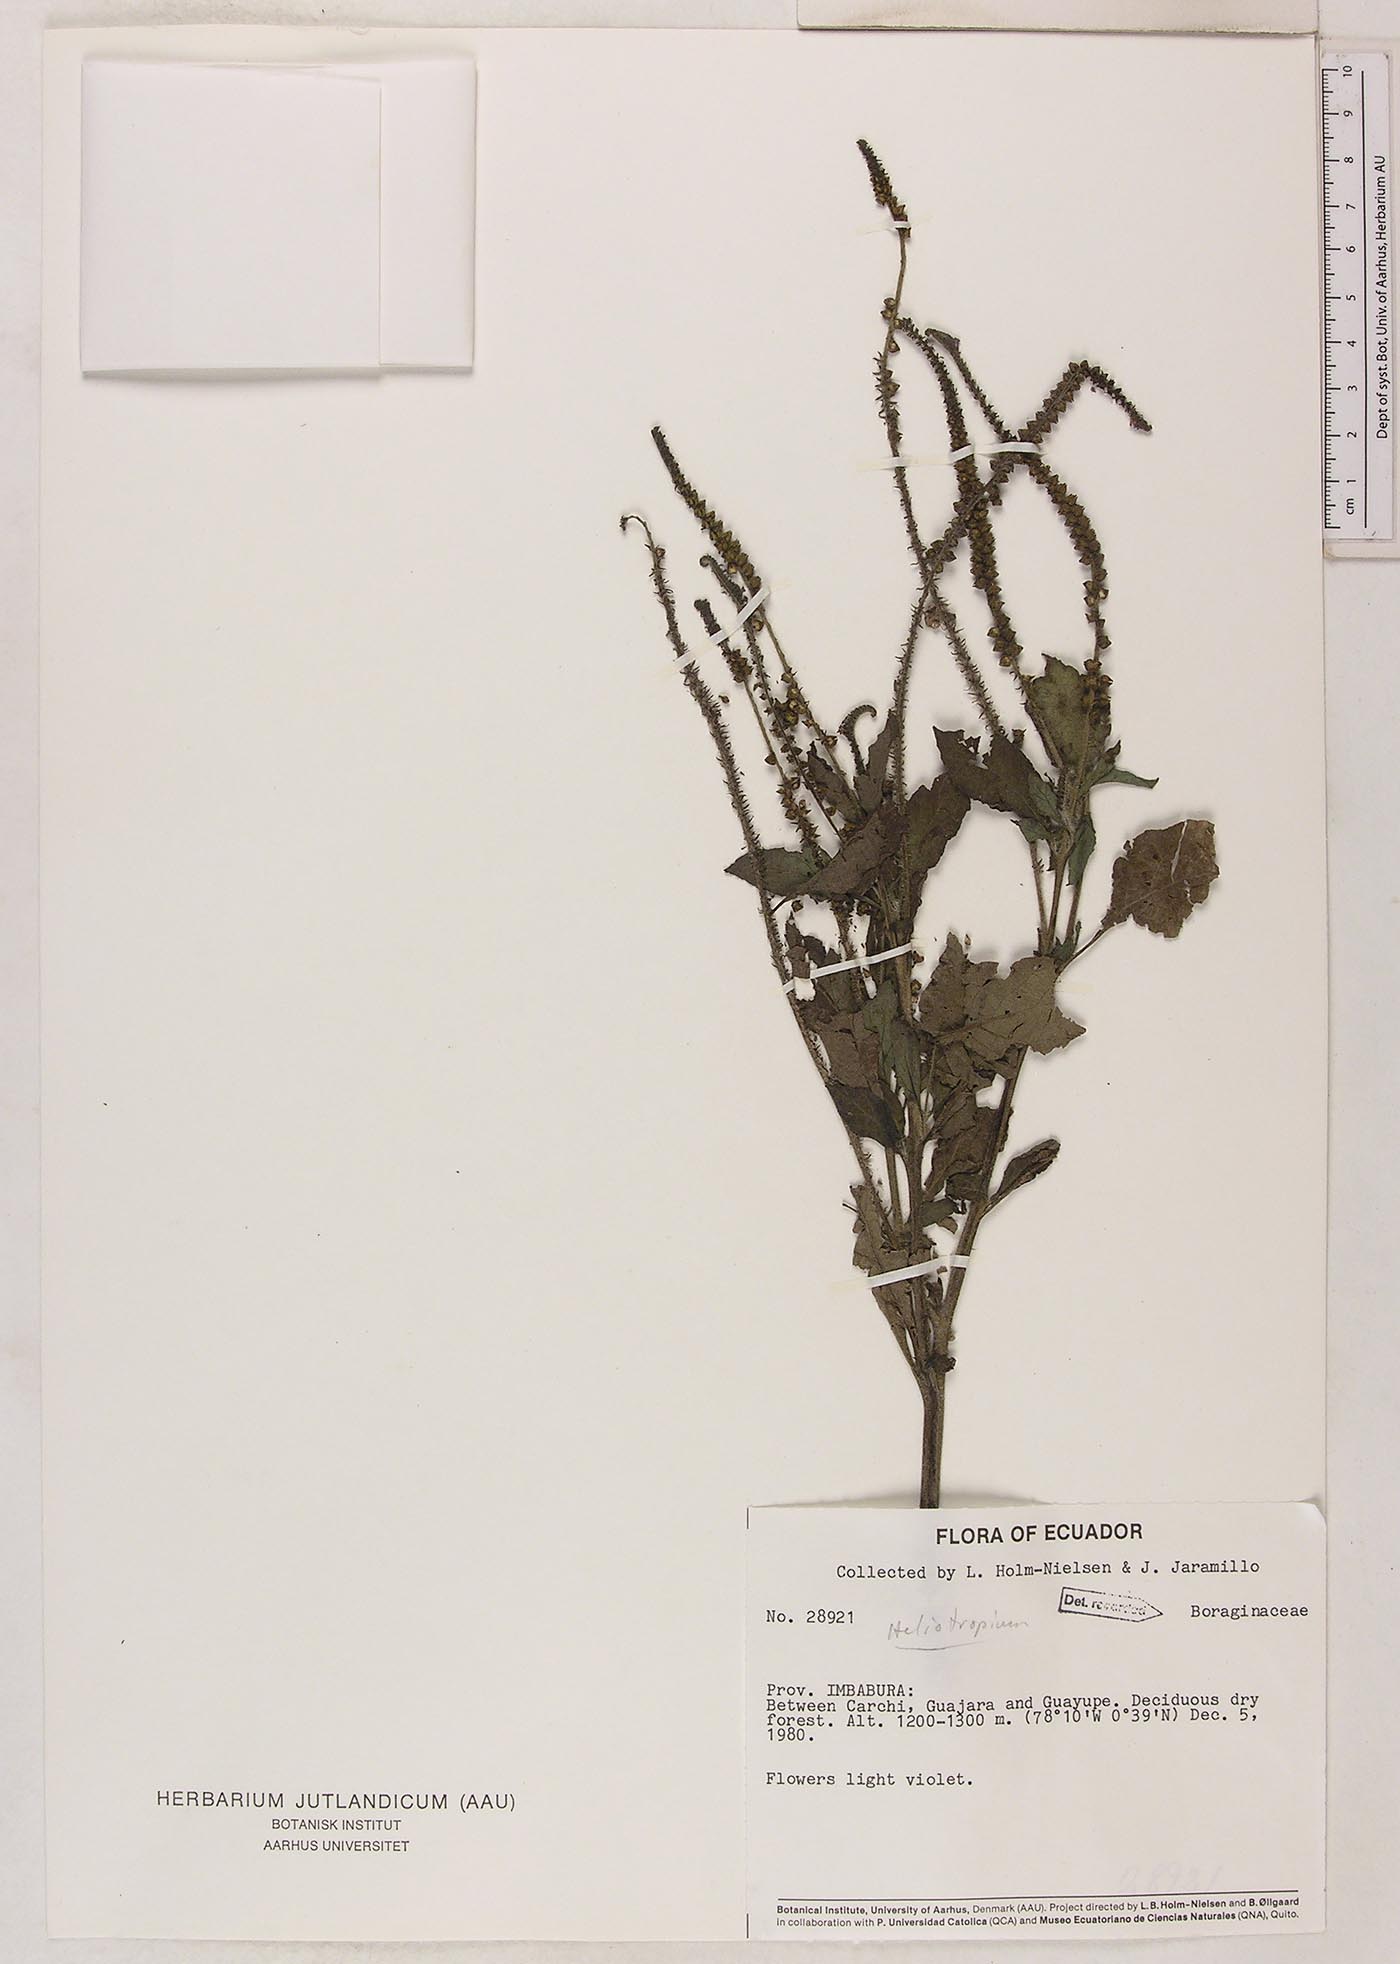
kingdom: Plantae
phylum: Tracheophyta
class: Magnoliopsida
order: Boraginales
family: Heliotropiaceae
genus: Heliotropium
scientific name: Heliotropium indicum
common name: Indian heliotrope
